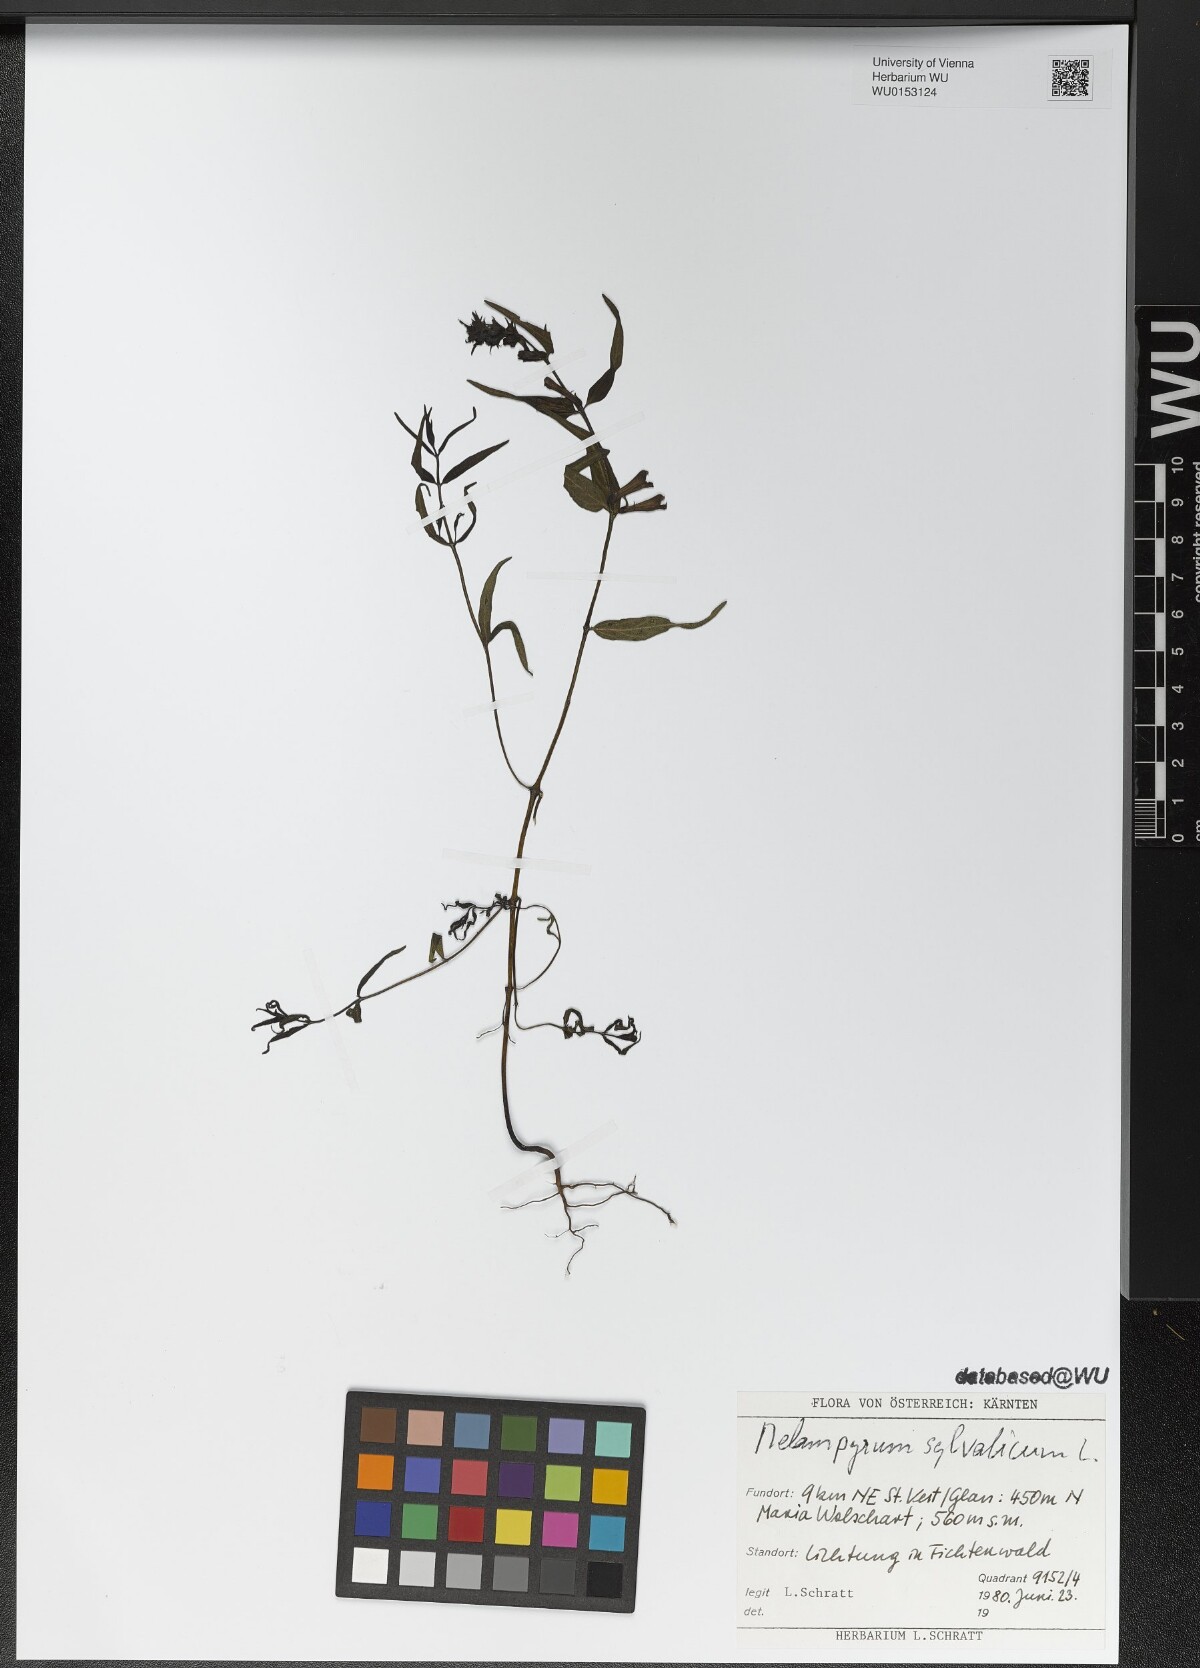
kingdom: Plantae
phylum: Tracheophyta
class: Magnoliopsida
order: Lamiales
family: Orobanchaceae
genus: Melampyrum
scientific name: Melampyrum sylvaticum
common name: Small cow-wheat
